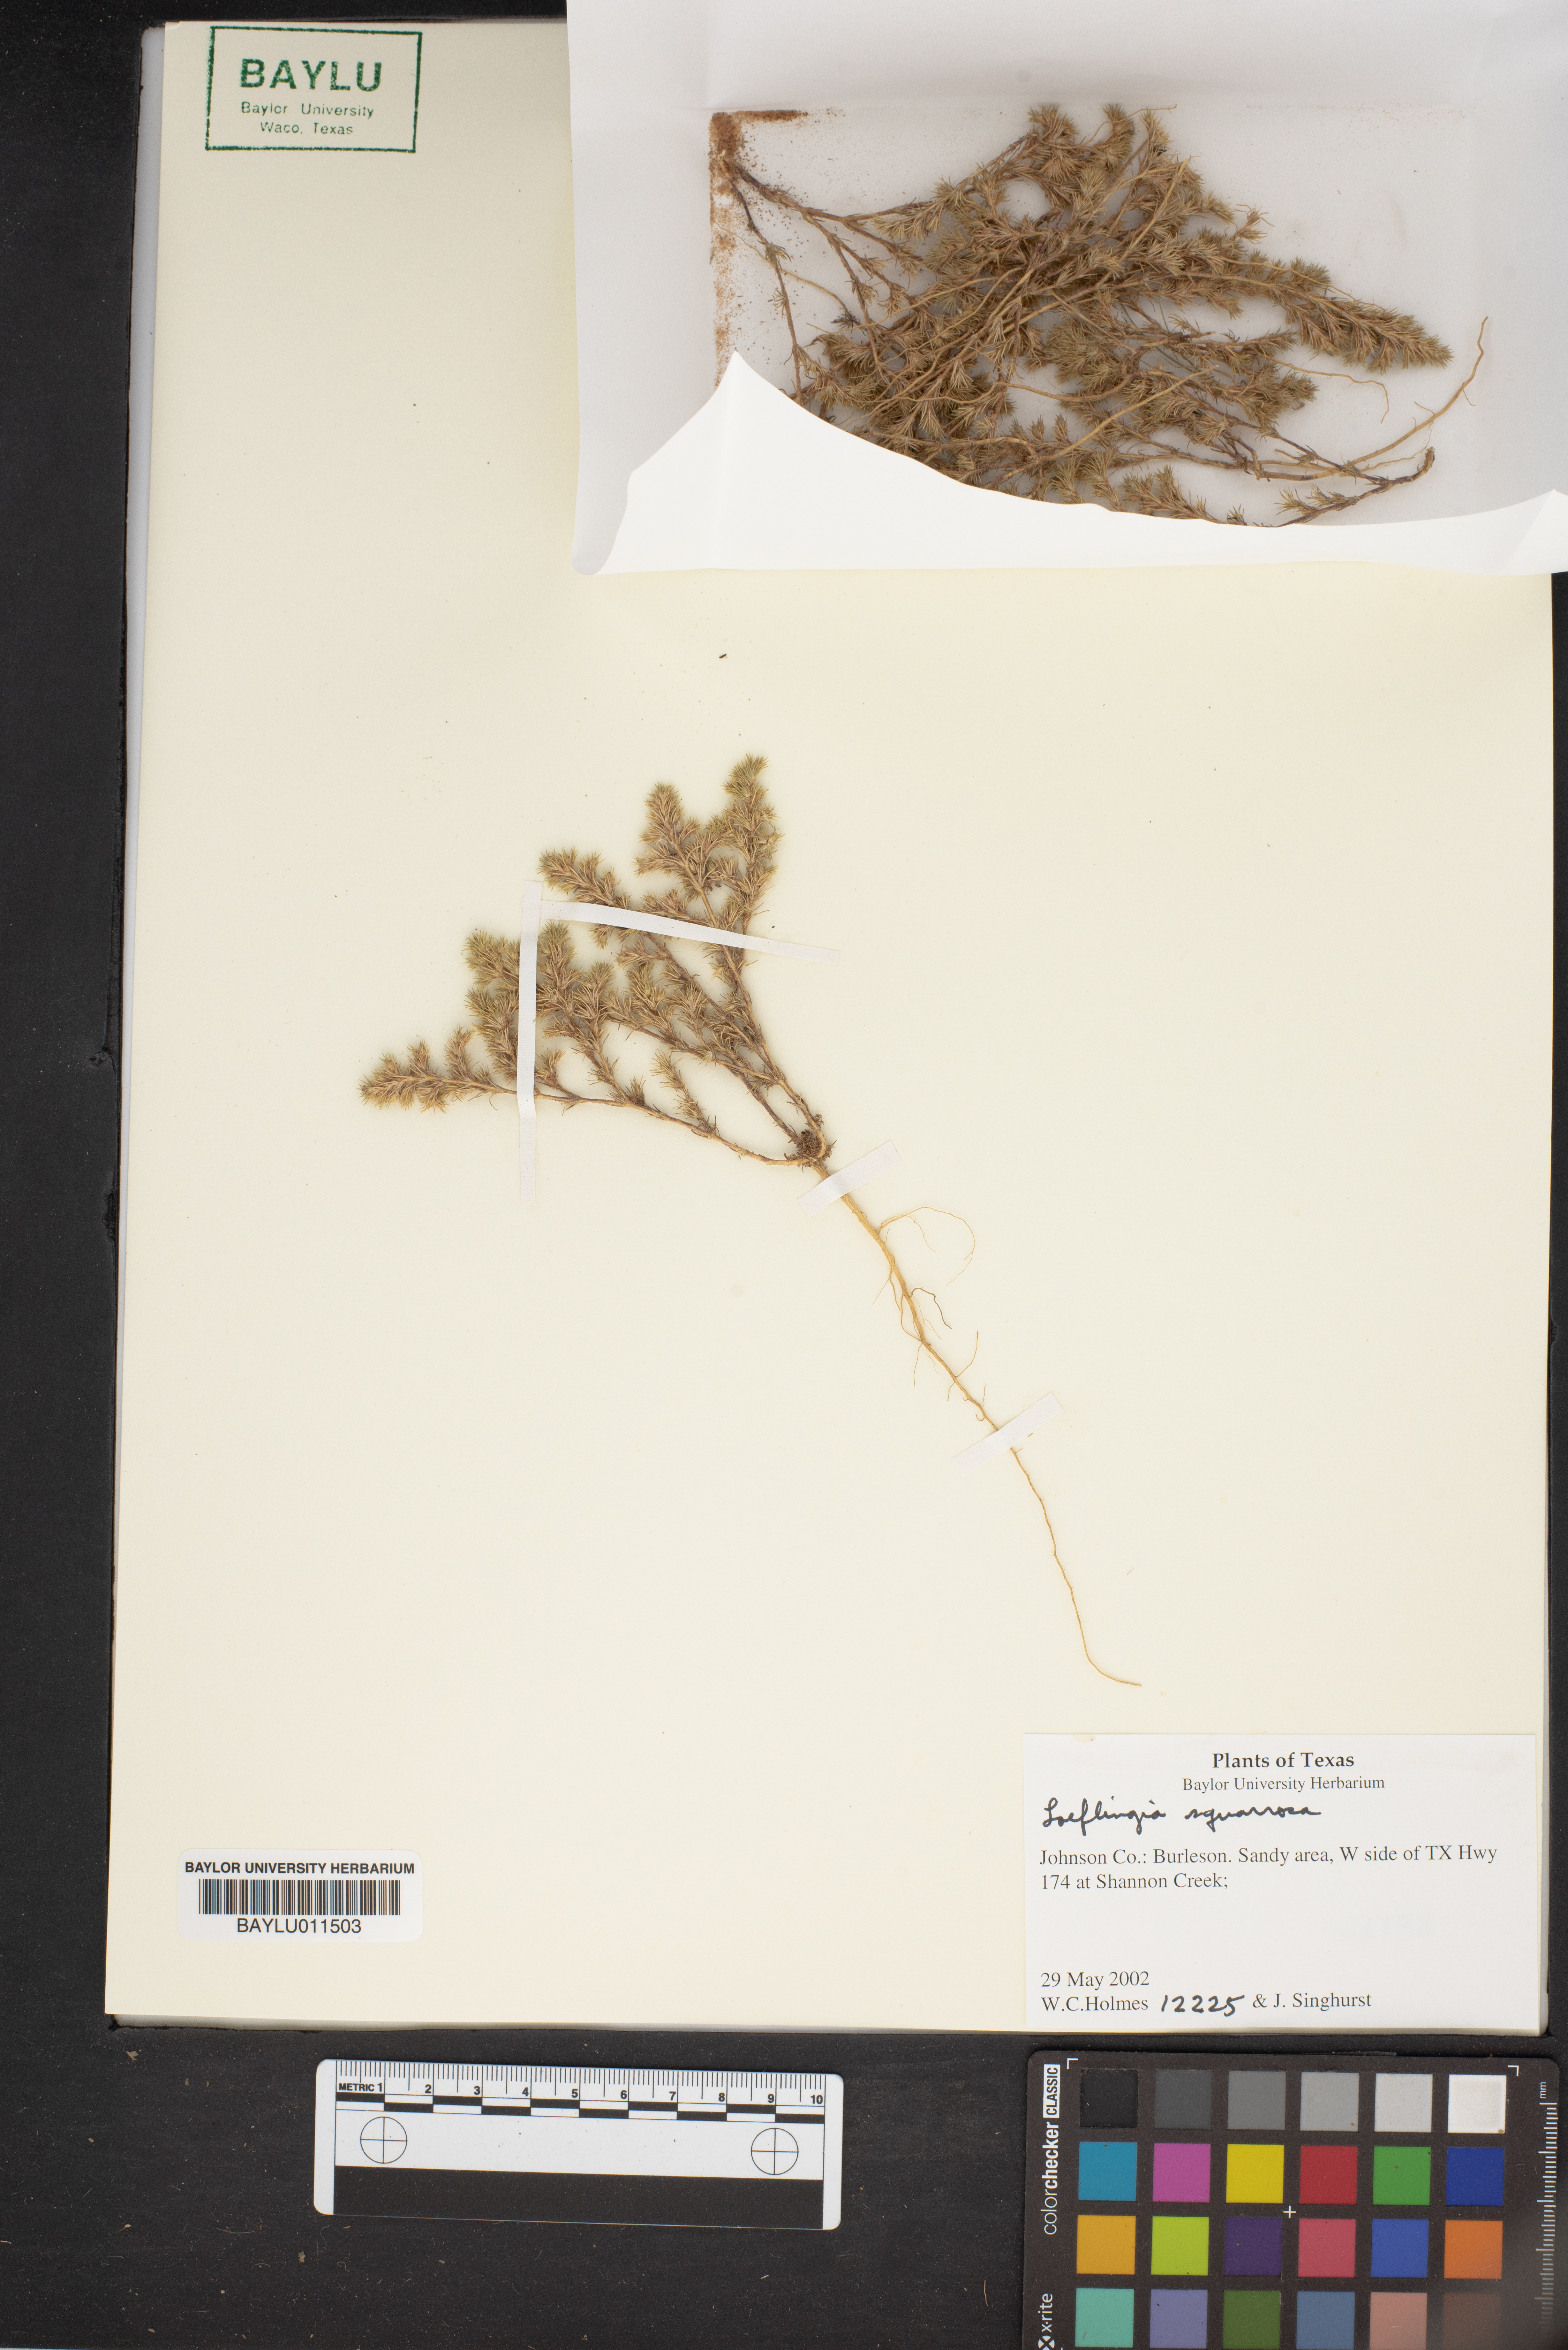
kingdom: Plantae
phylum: Tracheophyta
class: Magnoliopsida
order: Caryophyllales
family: Caryophyllaceae
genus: Loeflingia
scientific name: Loeflingia squarrosa
